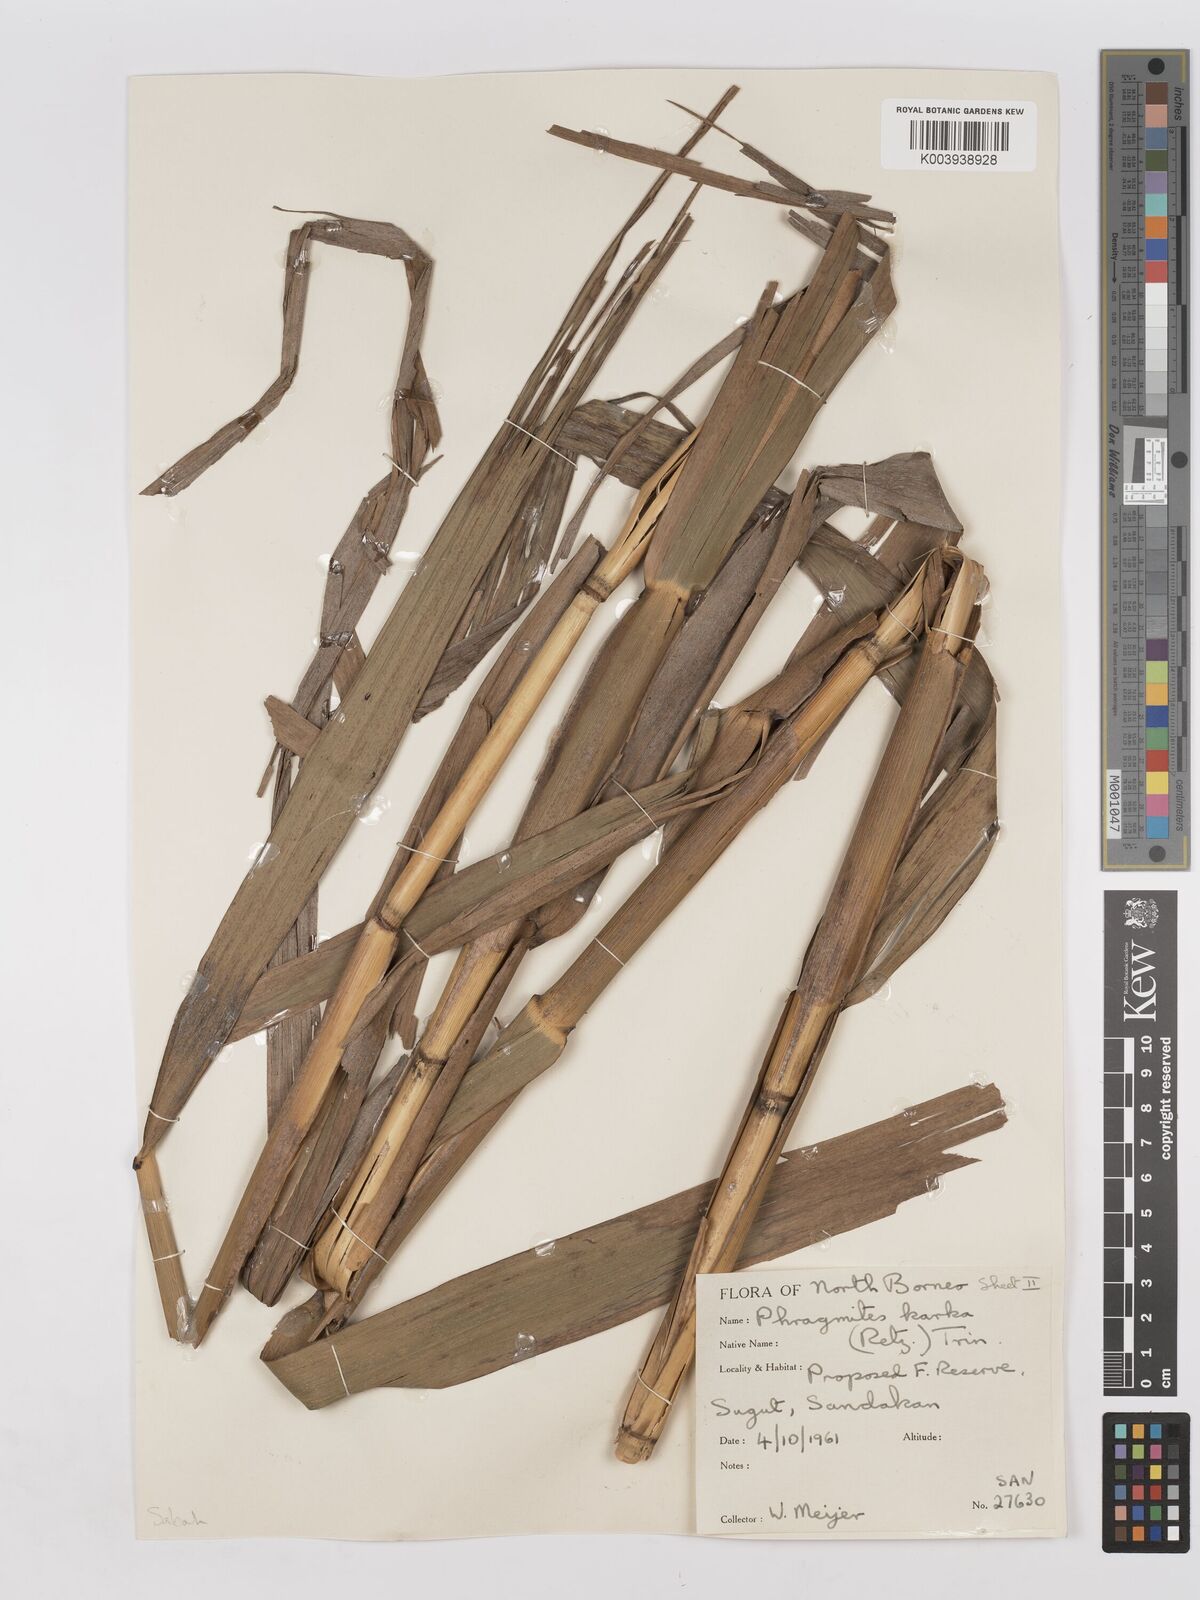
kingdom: Plantae
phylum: Tracheophyta
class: Liliopsida
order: Poales
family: Poaceae
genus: Phragmites
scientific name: Phragmites karka
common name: Tropical reed
